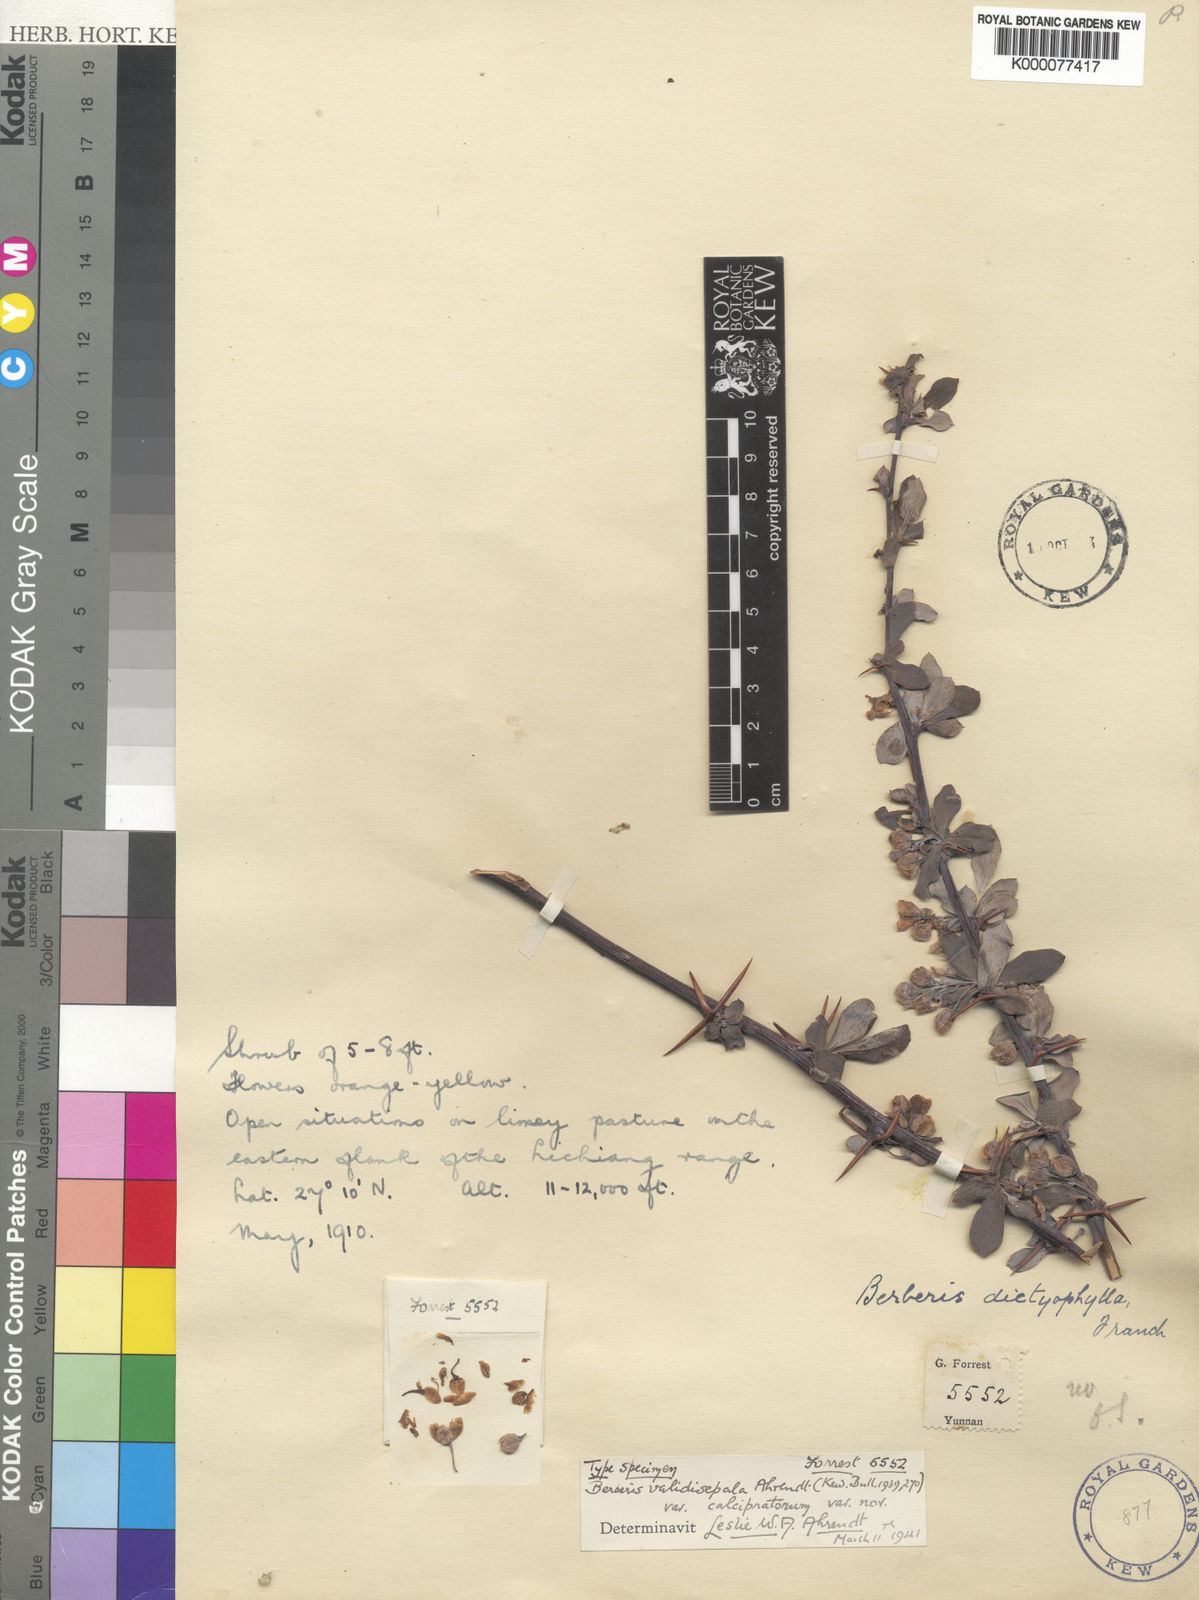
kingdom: Plantae
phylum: Tracheophyta
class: Magnoliopsida
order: Ranunculales
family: Berberidaceae
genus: Berberis
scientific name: Berberis validisepala
